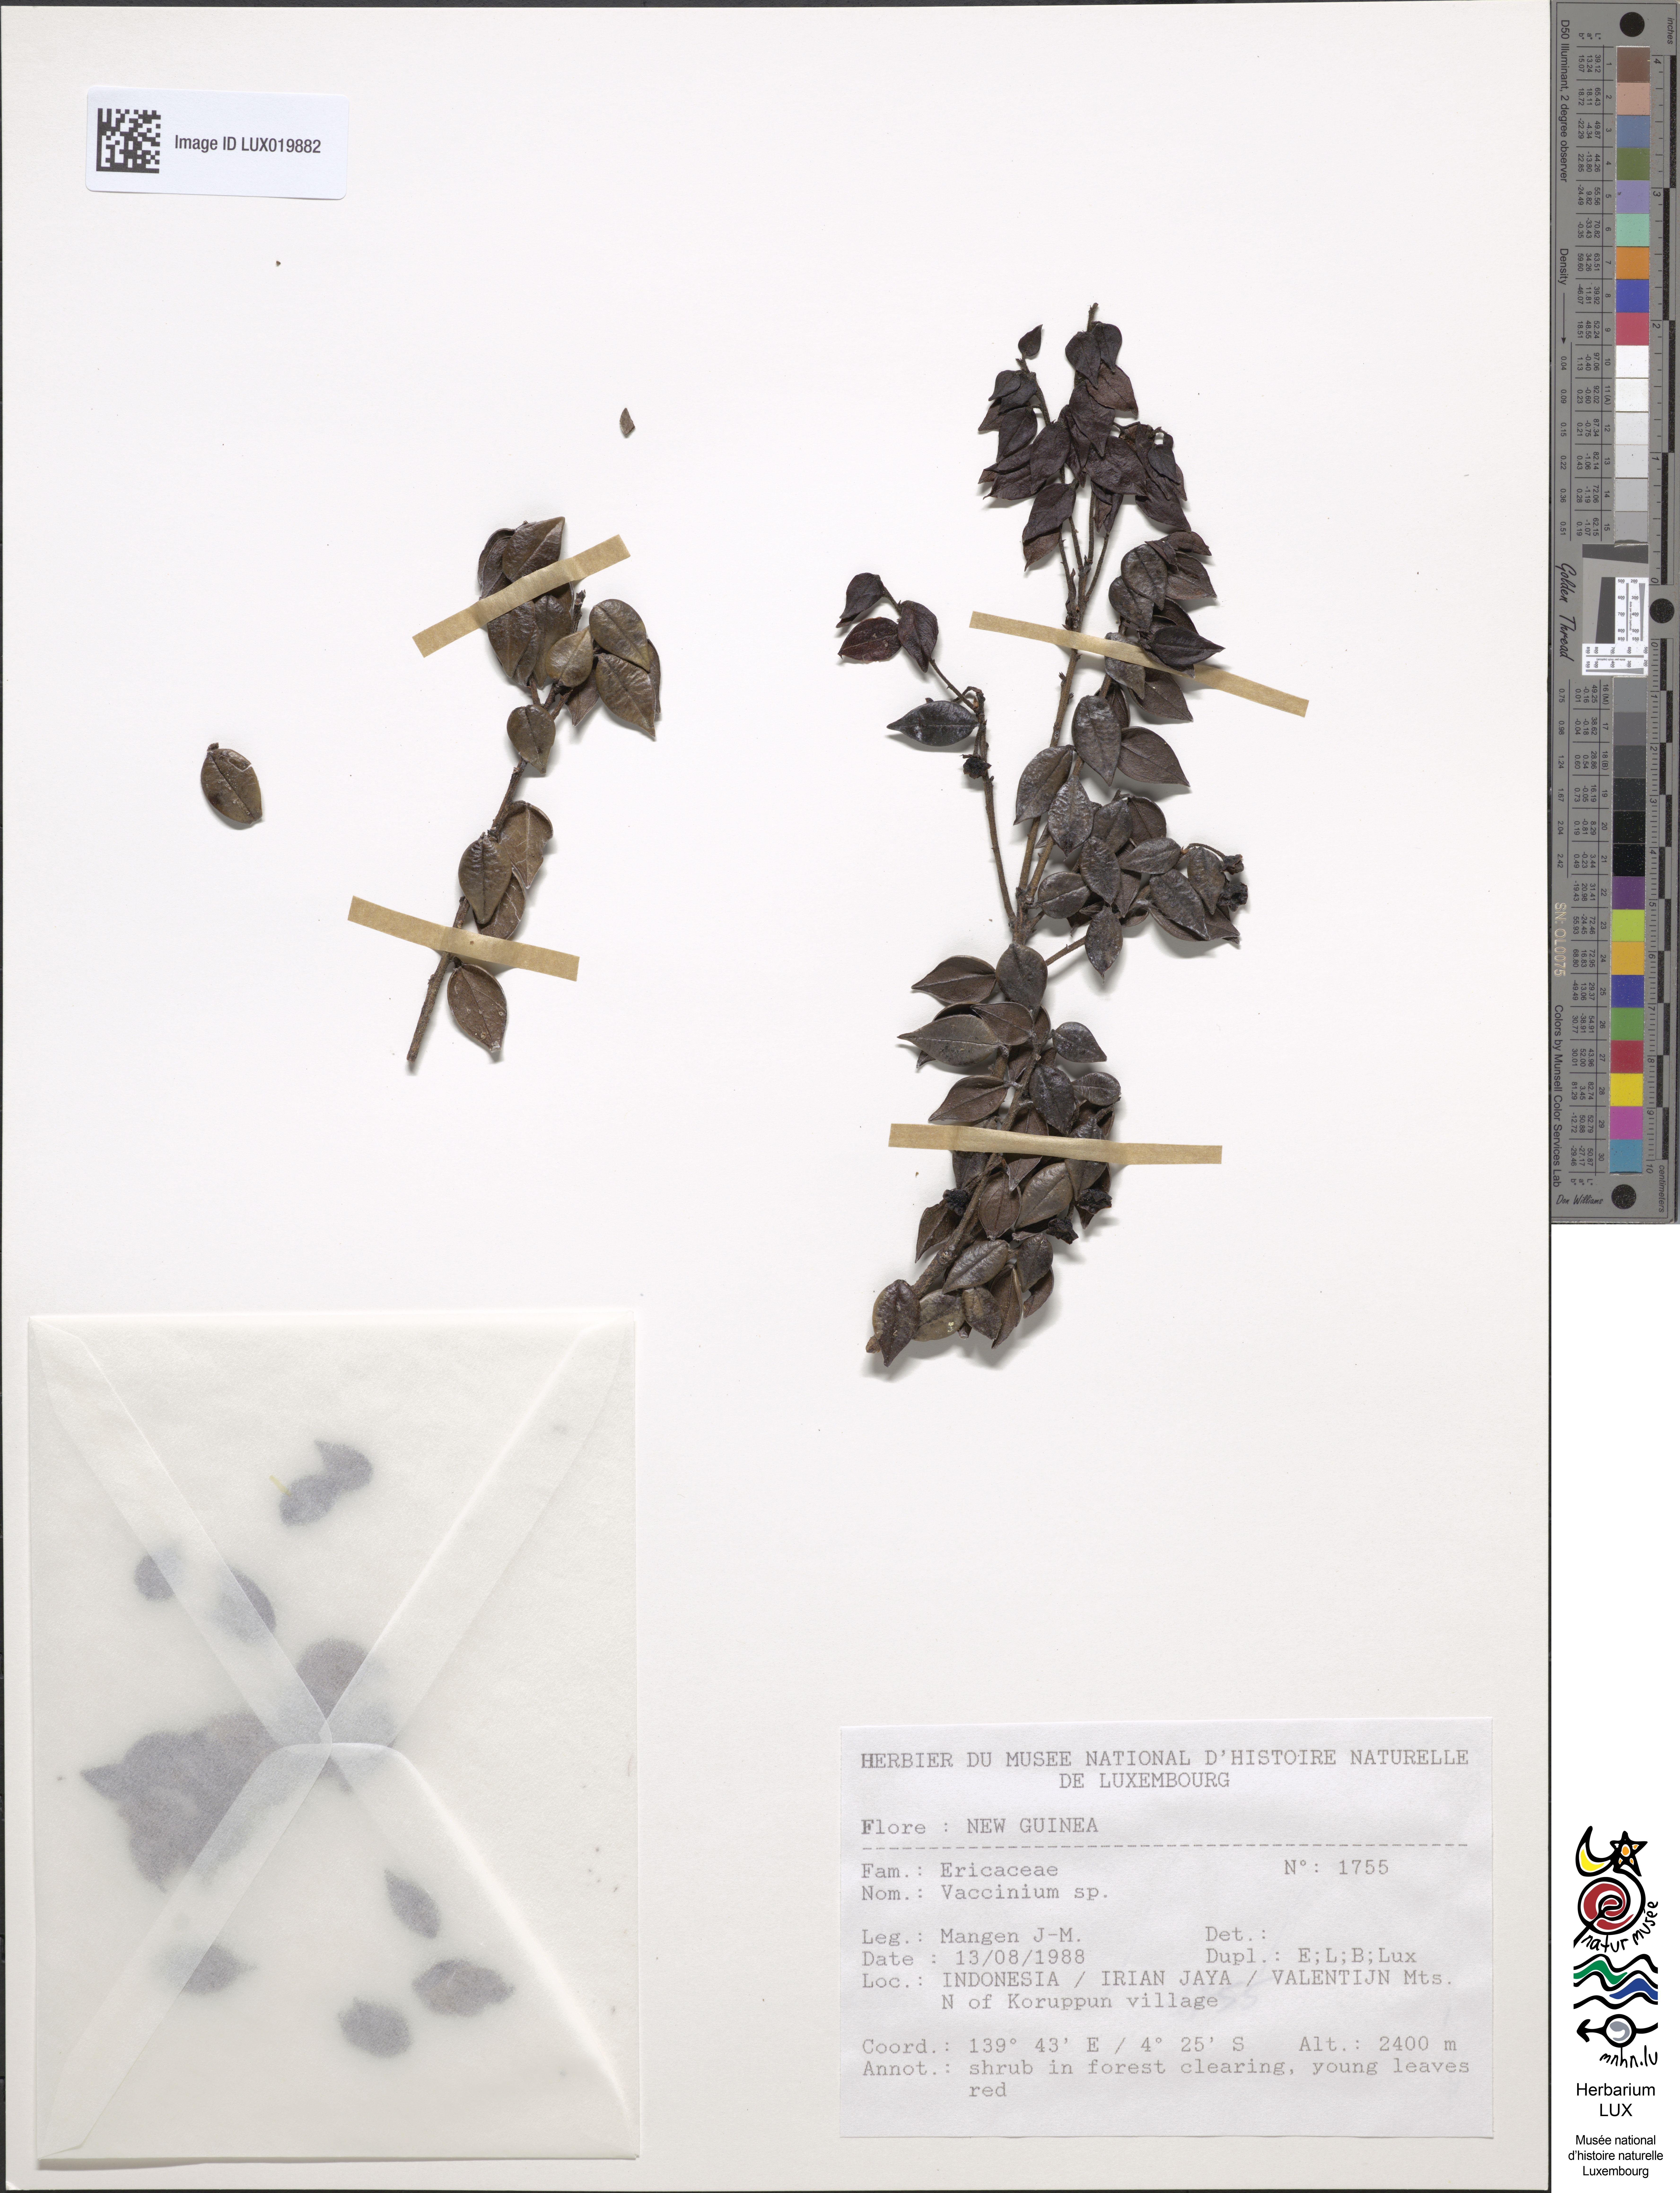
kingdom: Plantae
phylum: Tracheophyta
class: Magnoliopsida
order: Ericales
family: Ericaceae
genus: Vaccinium
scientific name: Vaccinium
